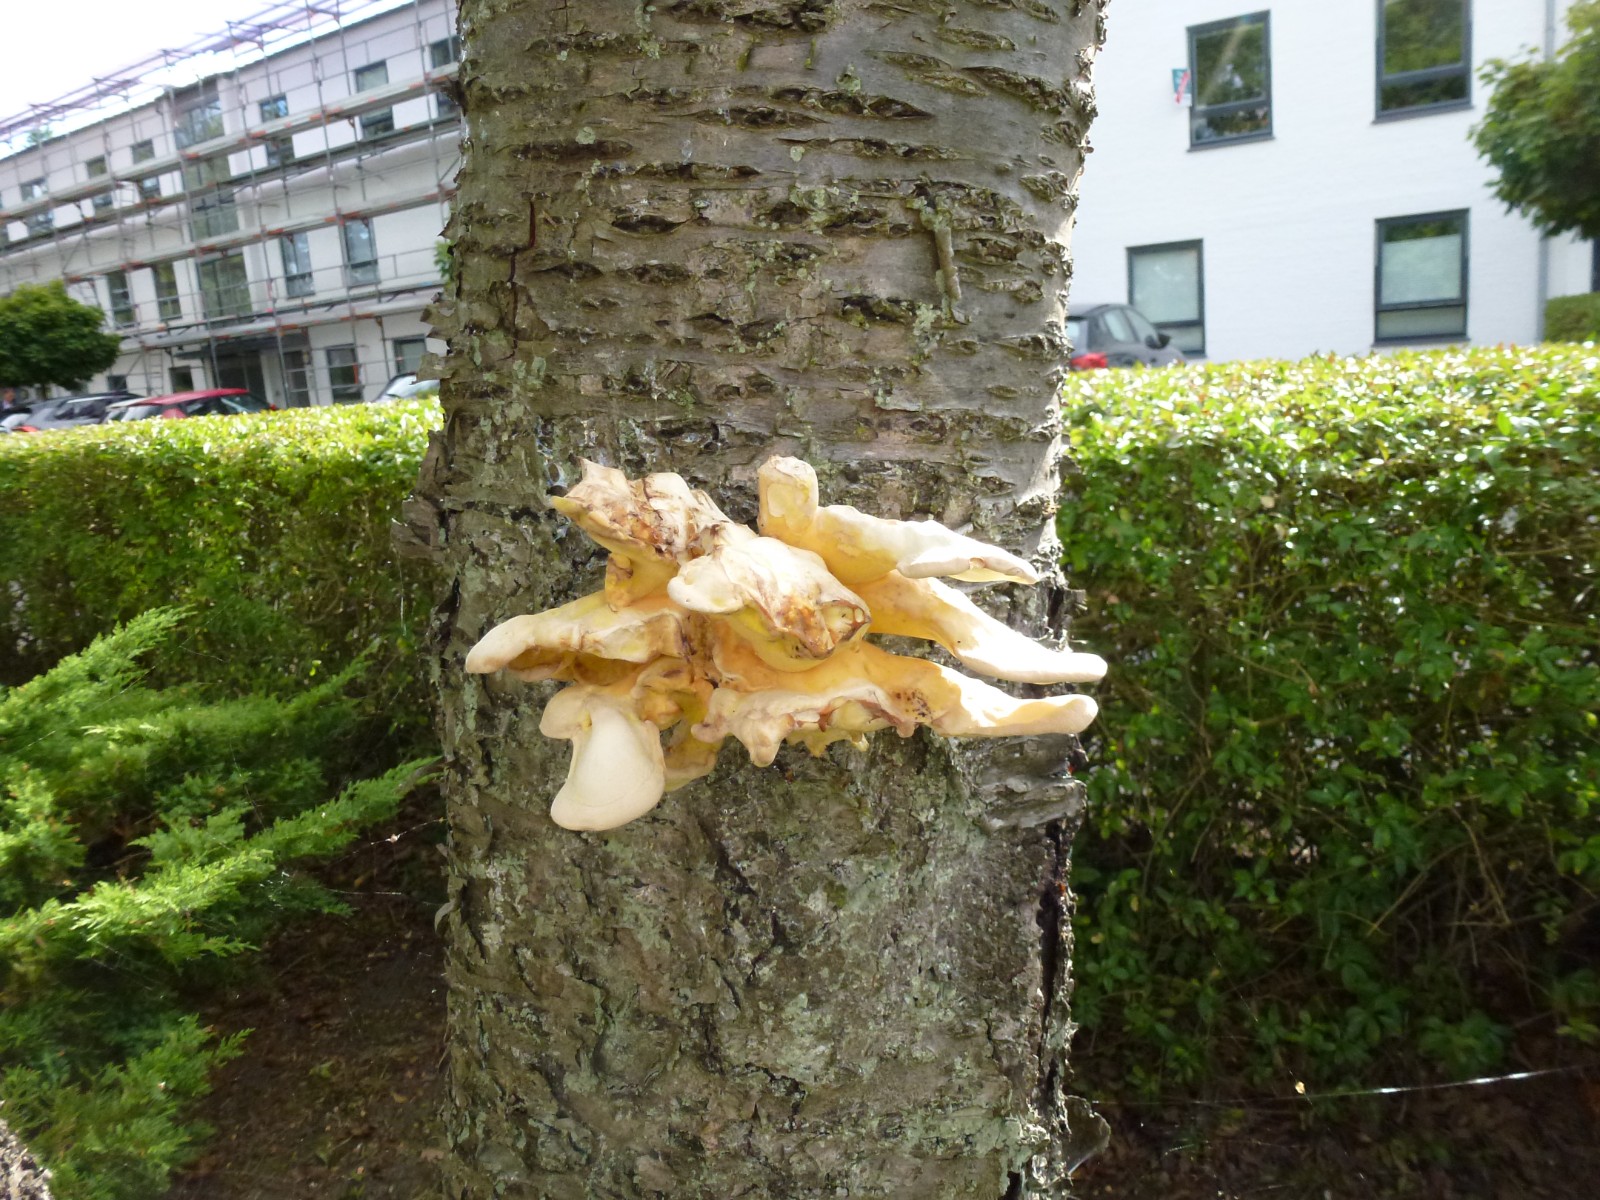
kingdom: Fungi
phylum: Basidiomycota
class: Agaricomycetes
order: Polyporales
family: Laetiporaceae
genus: Laetiporus
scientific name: Laetiporus sulphureus
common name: svovlporesvamp
